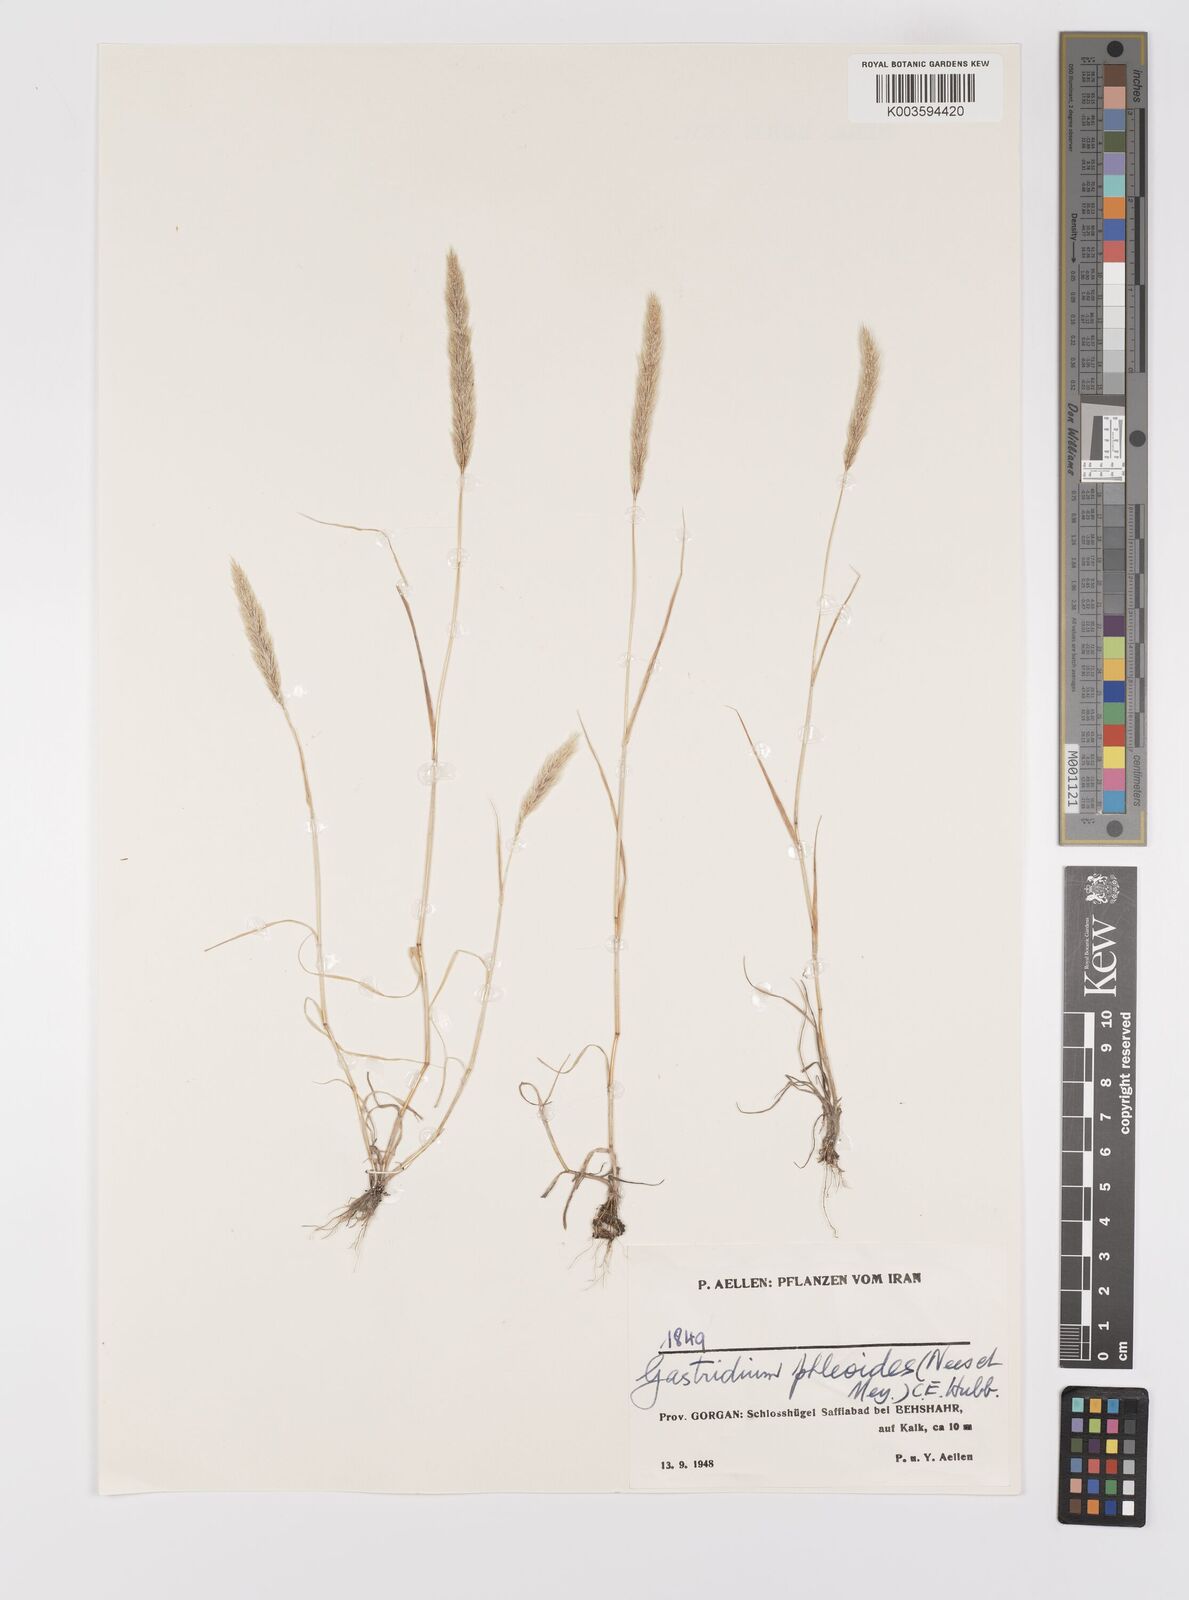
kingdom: Plantae
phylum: Tracheophyta
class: Liliopsida
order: Poales
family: Poaceae
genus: Gastridium
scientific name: Gastridium phleoides
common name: Nit grass
